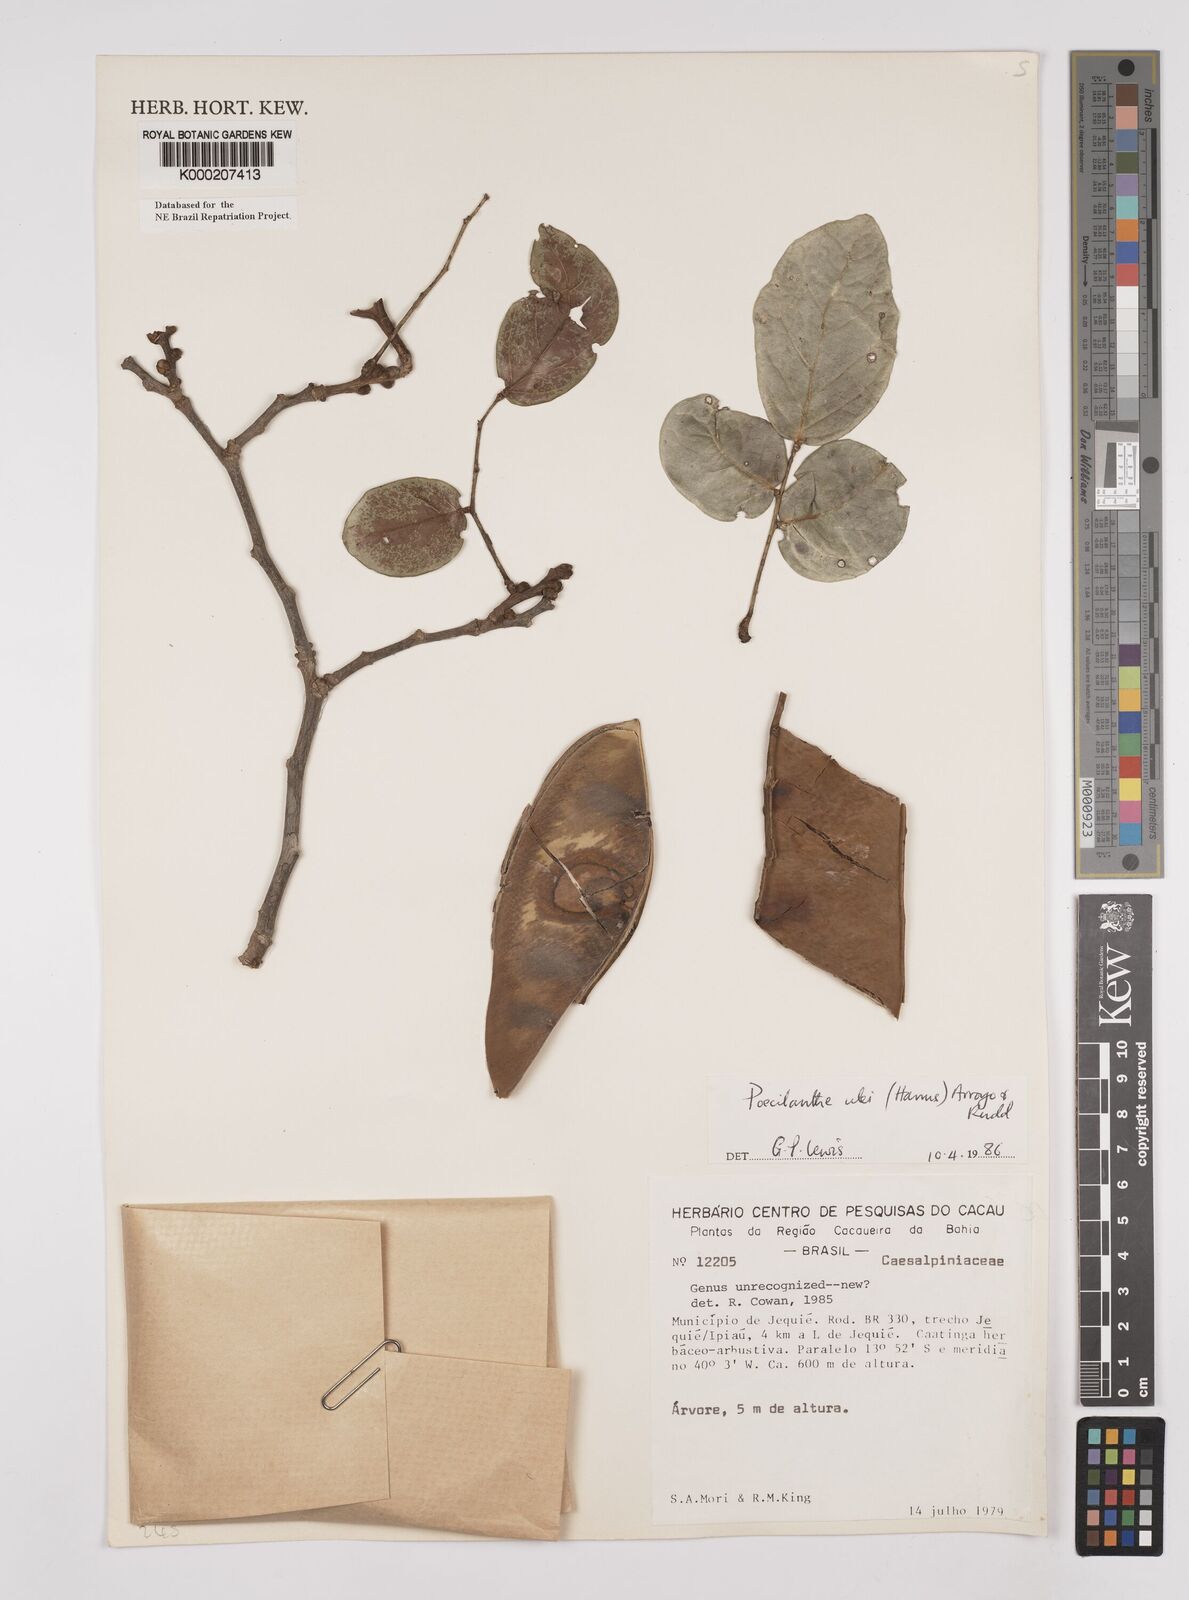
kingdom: Plantae
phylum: Tracheophyta
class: Magnoliopsida
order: Fabales
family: Fabaceae
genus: Poecilanthe
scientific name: Poecilanthe ulei
